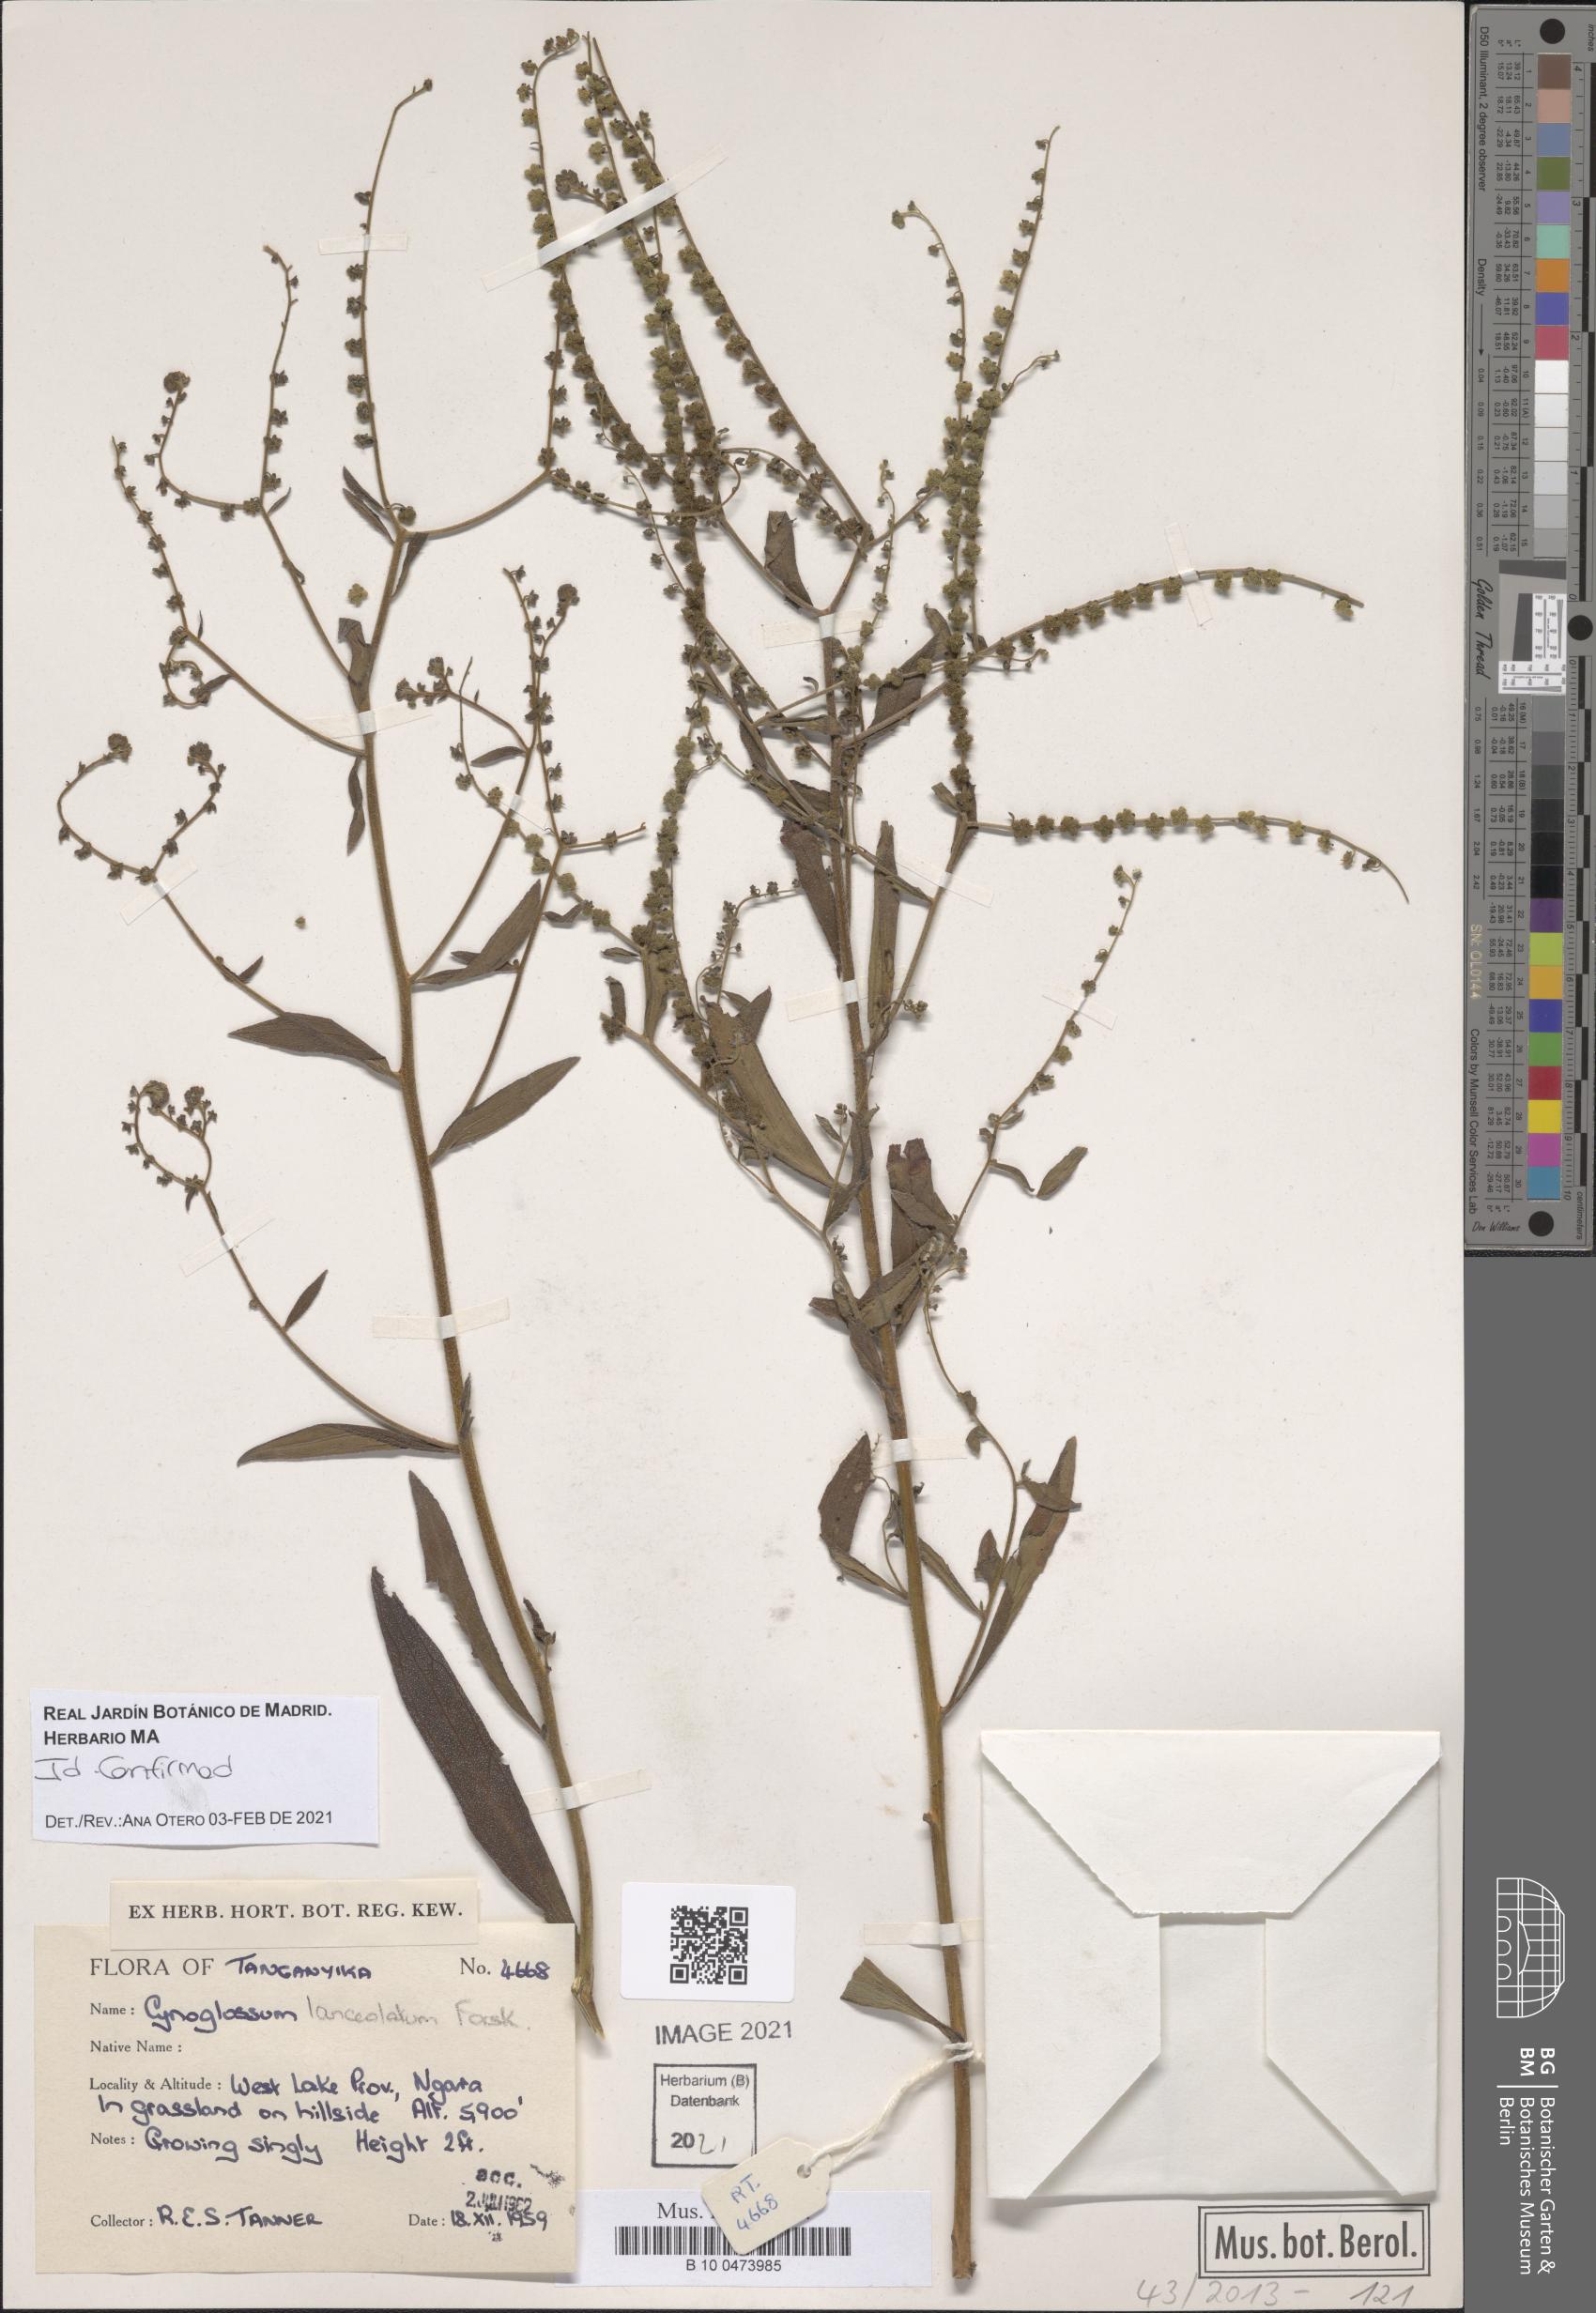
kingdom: Plantae
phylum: Tracheophyta
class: Magnoliopsida
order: Boraginales
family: Boraginaceae
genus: Paracynoglossum
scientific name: Paracynoglossum lanceolatum
